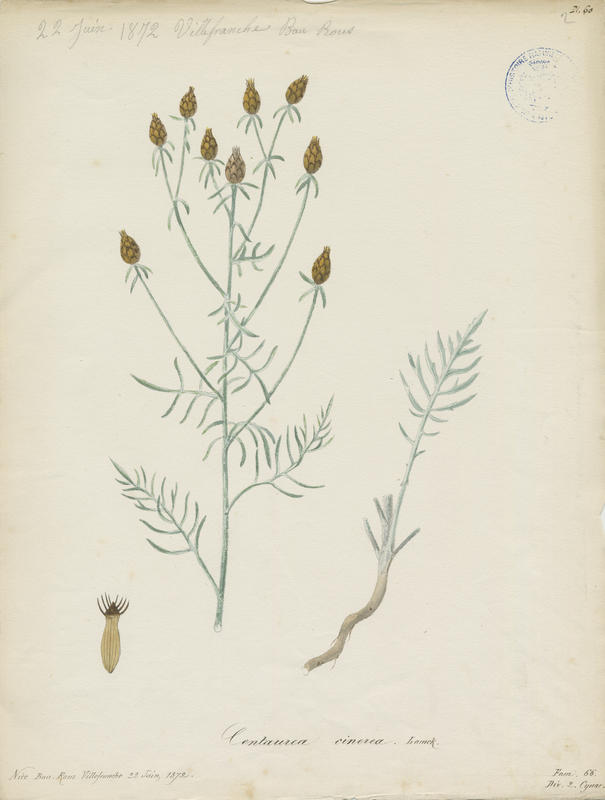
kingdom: Plantae
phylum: Tracheophyta
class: Magnoliopsida
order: Asterales
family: Asteraceae
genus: Centaurea
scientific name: Centaurea pseudocineraria
